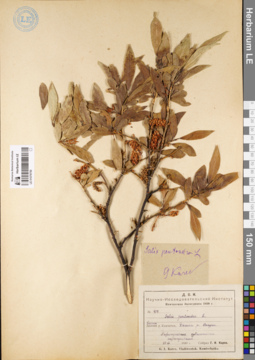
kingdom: Plantae
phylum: Tracheophyta
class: Magnoliopsida
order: Malpighiales
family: Salicaceae
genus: Salix
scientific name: Salix pseudopentandra
